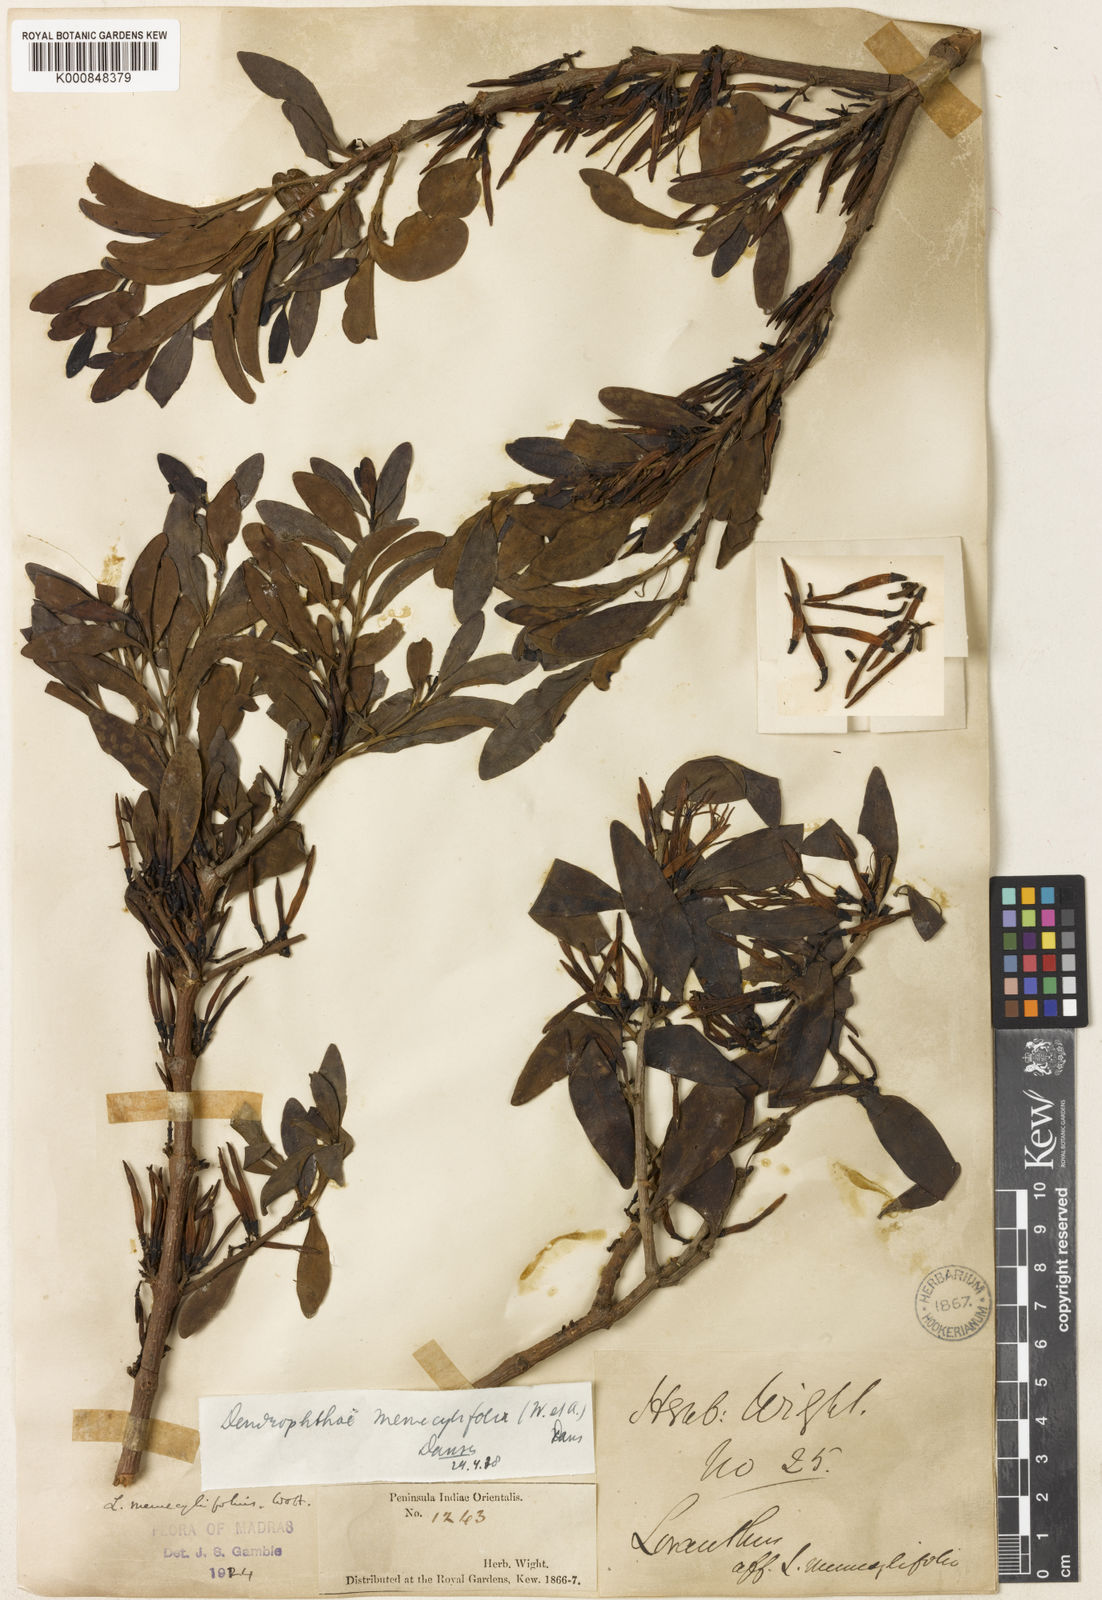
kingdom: Plantae
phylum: Tracheophyta
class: Magnoliopsida
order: Santalales
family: Loranthaceae
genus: Dendrophthoe
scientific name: Dendrophthoe memecylifolia
